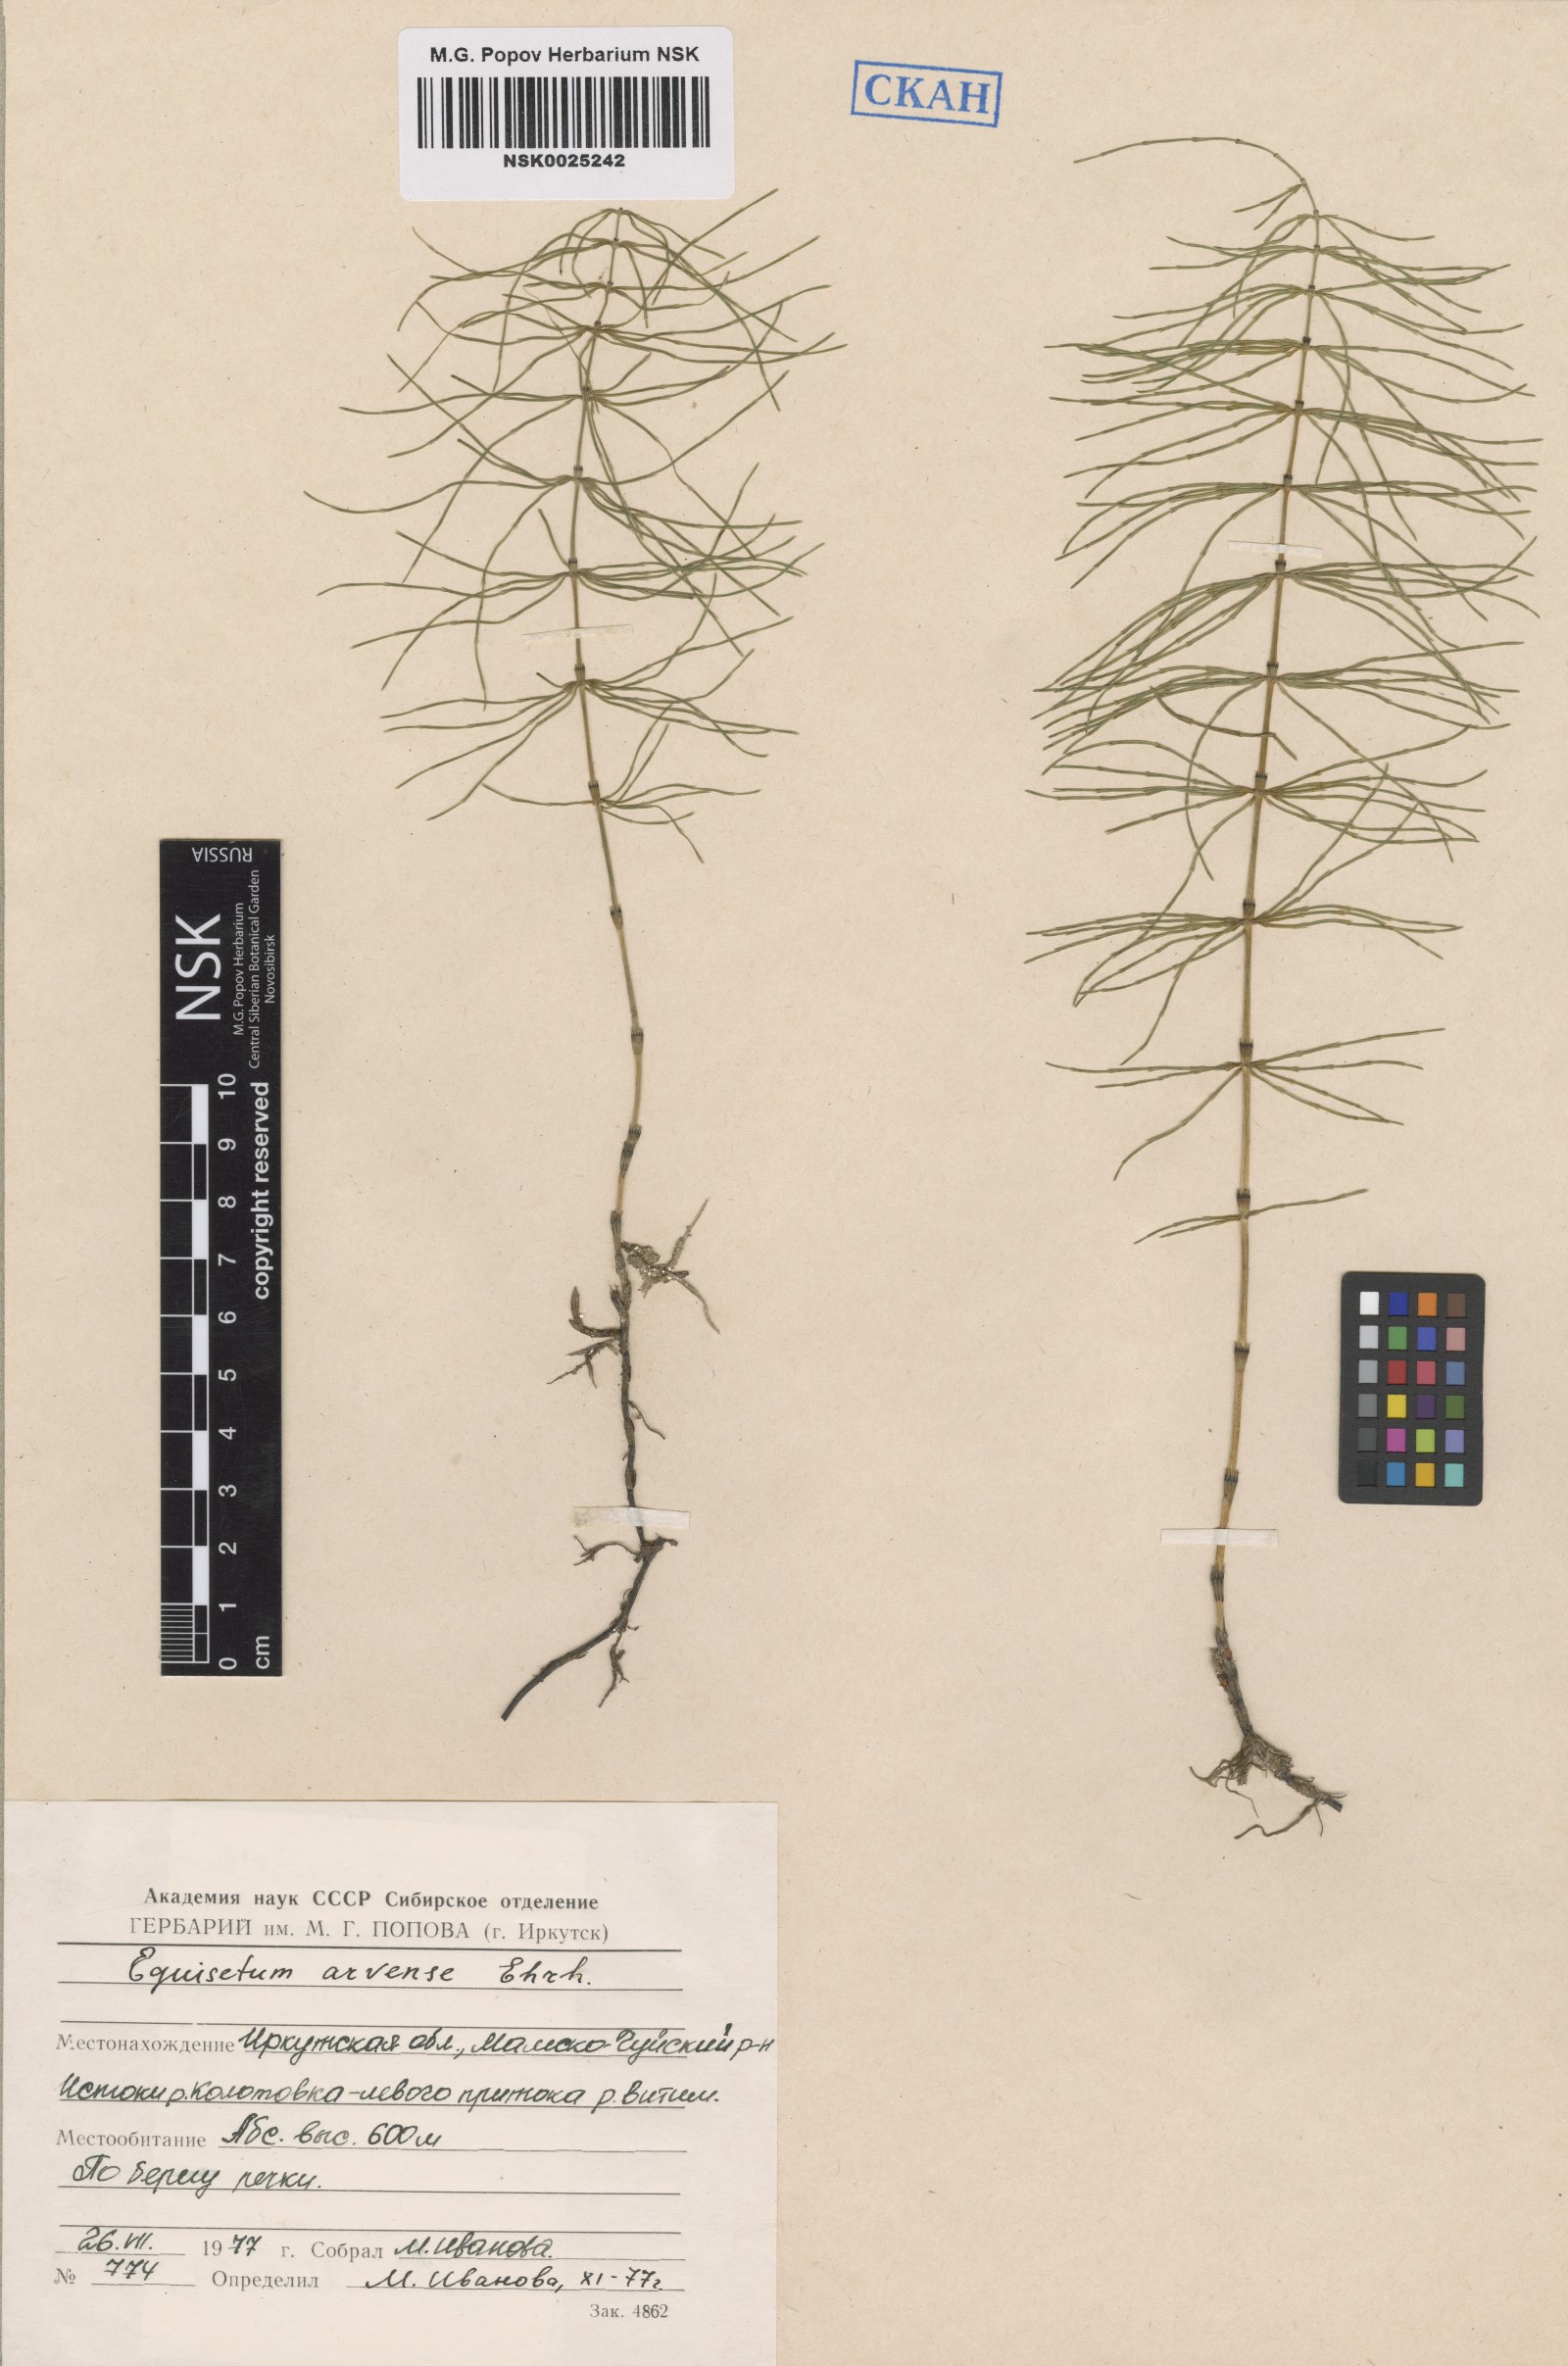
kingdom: Plantae
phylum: Tracheophyta
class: Polypodiopsida
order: Equisetales
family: Equisetaceae
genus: Equisetum
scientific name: Equisetum arvense
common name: Field horsetail
